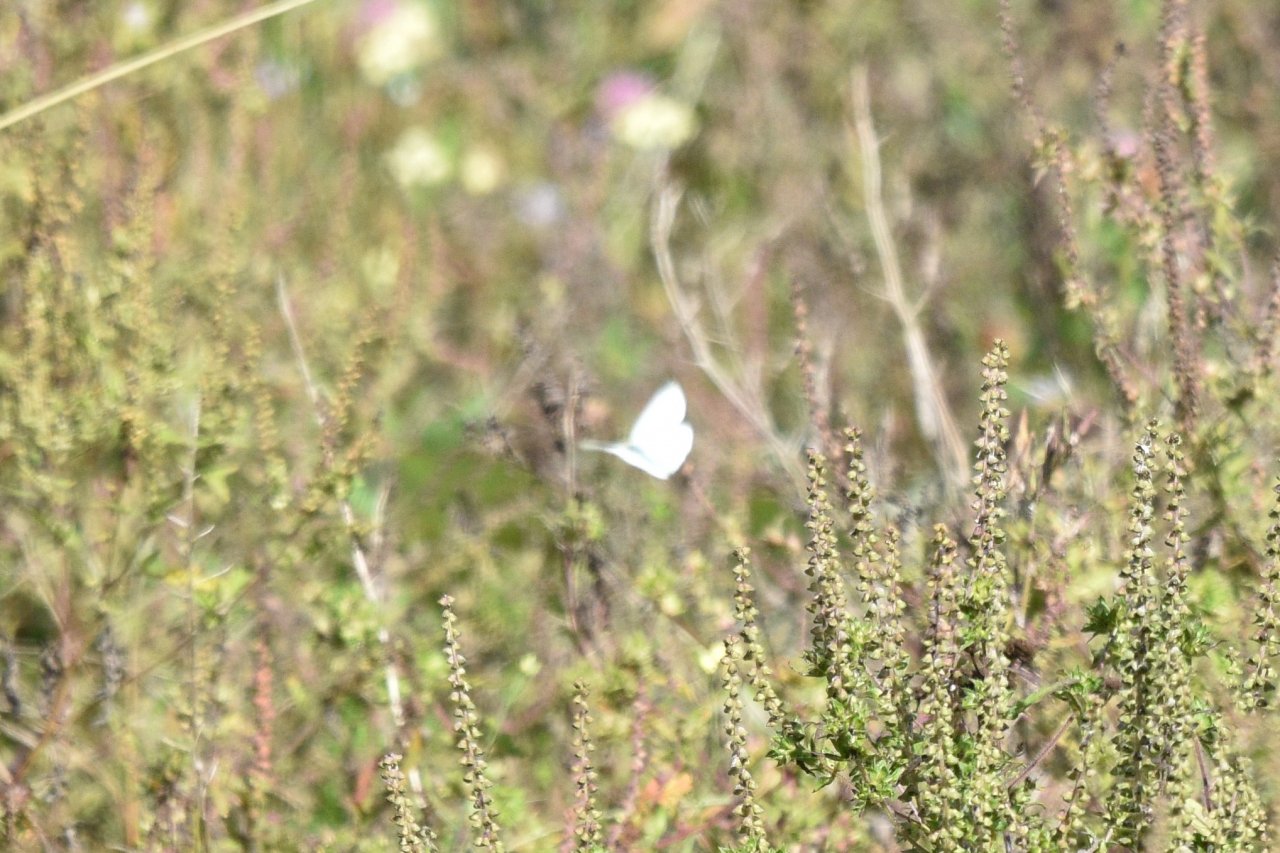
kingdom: Animalia
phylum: Arthropoda
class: Insecta
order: Lepidoptera
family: Pieridae
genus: Pieris
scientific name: Pieris rapae
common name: Cabbage White
